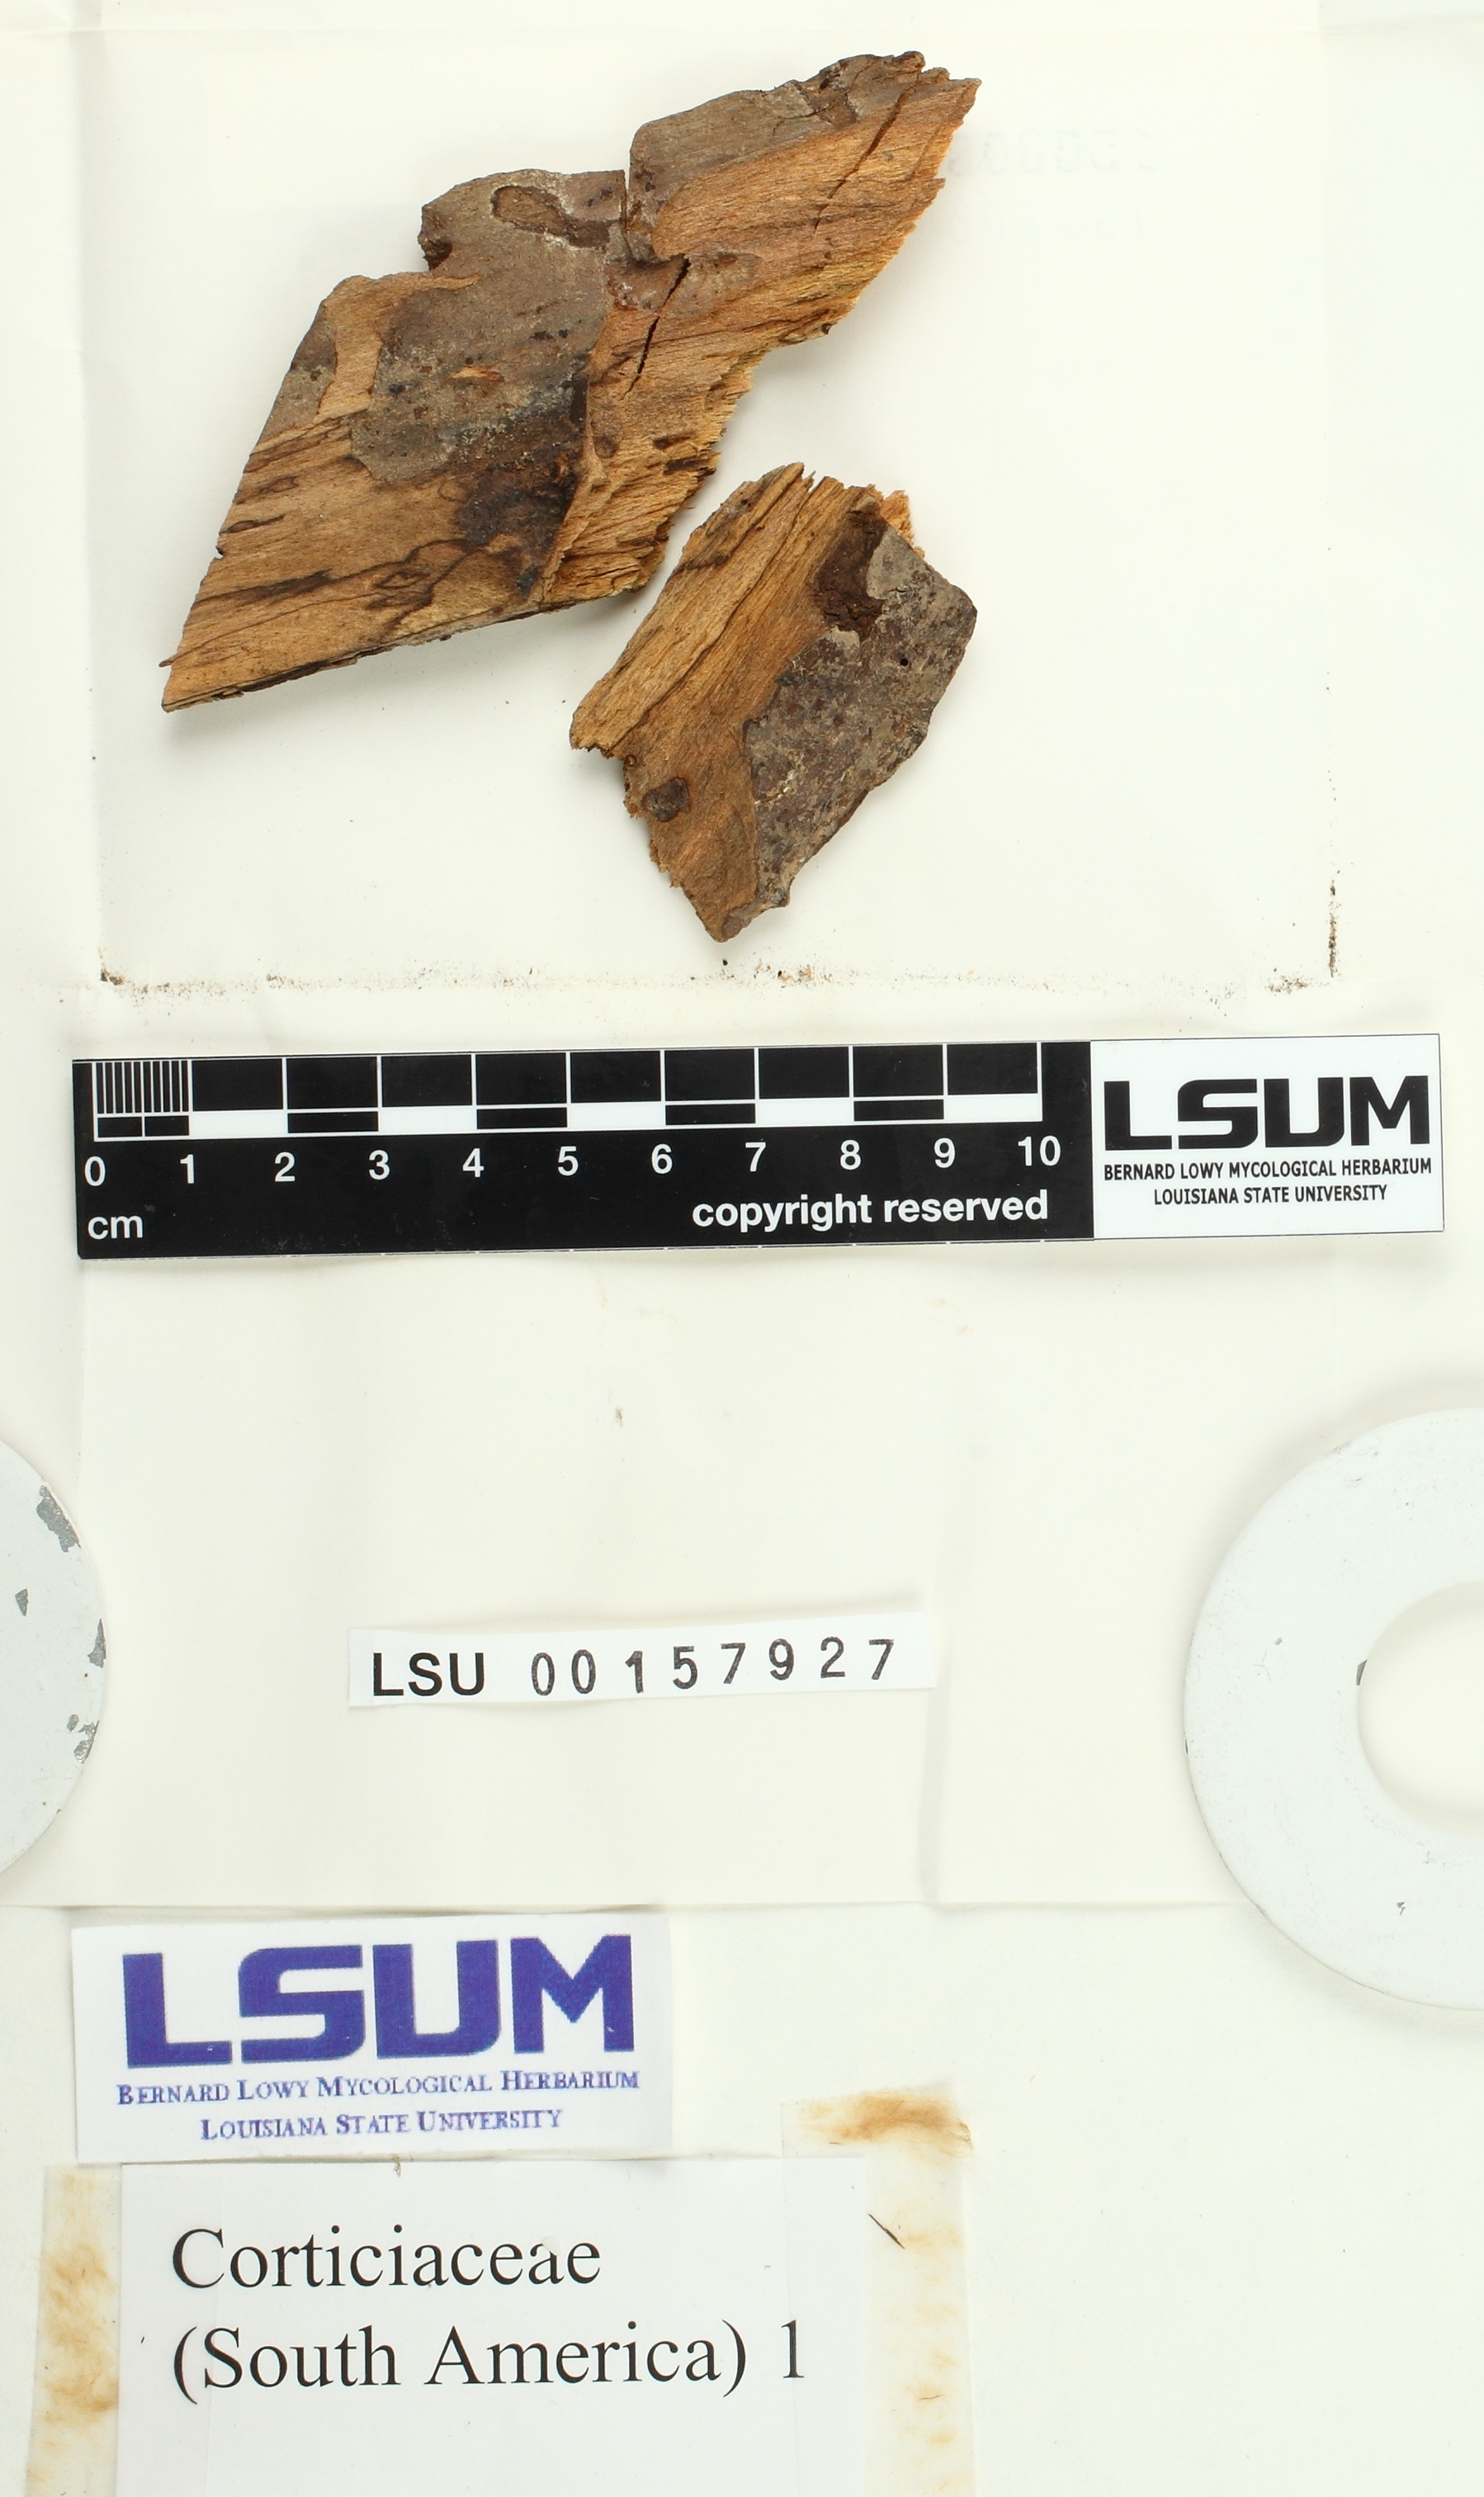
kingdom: Fungi
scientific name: Fungi
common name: Fungi
